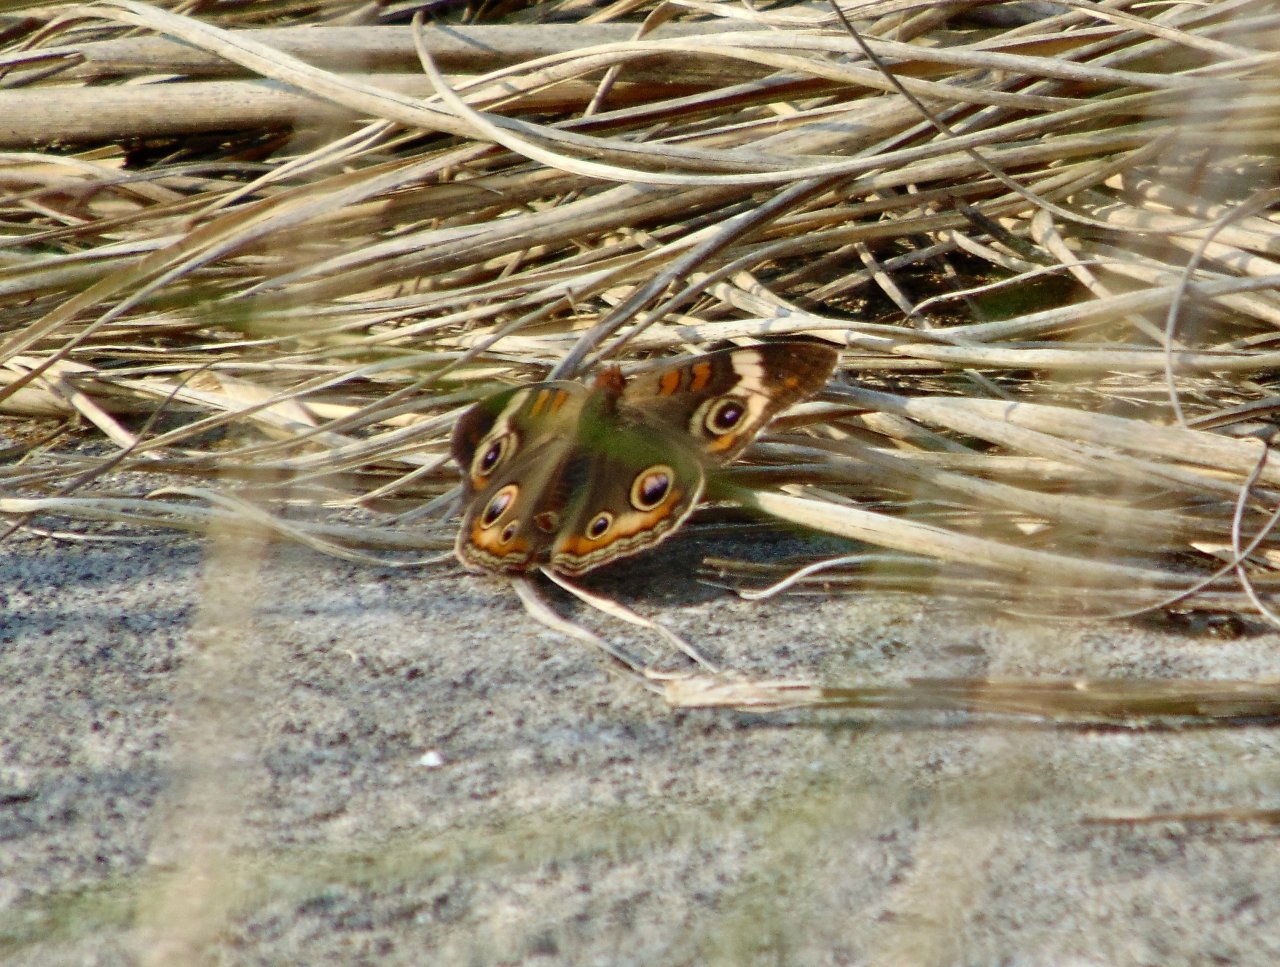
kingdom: Animalia
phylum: Arthropoda
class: Insecta
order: Lepidoptera
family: Nymphalidae
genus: Junonia
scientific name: Junonia coenia
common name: Common Buckeye
